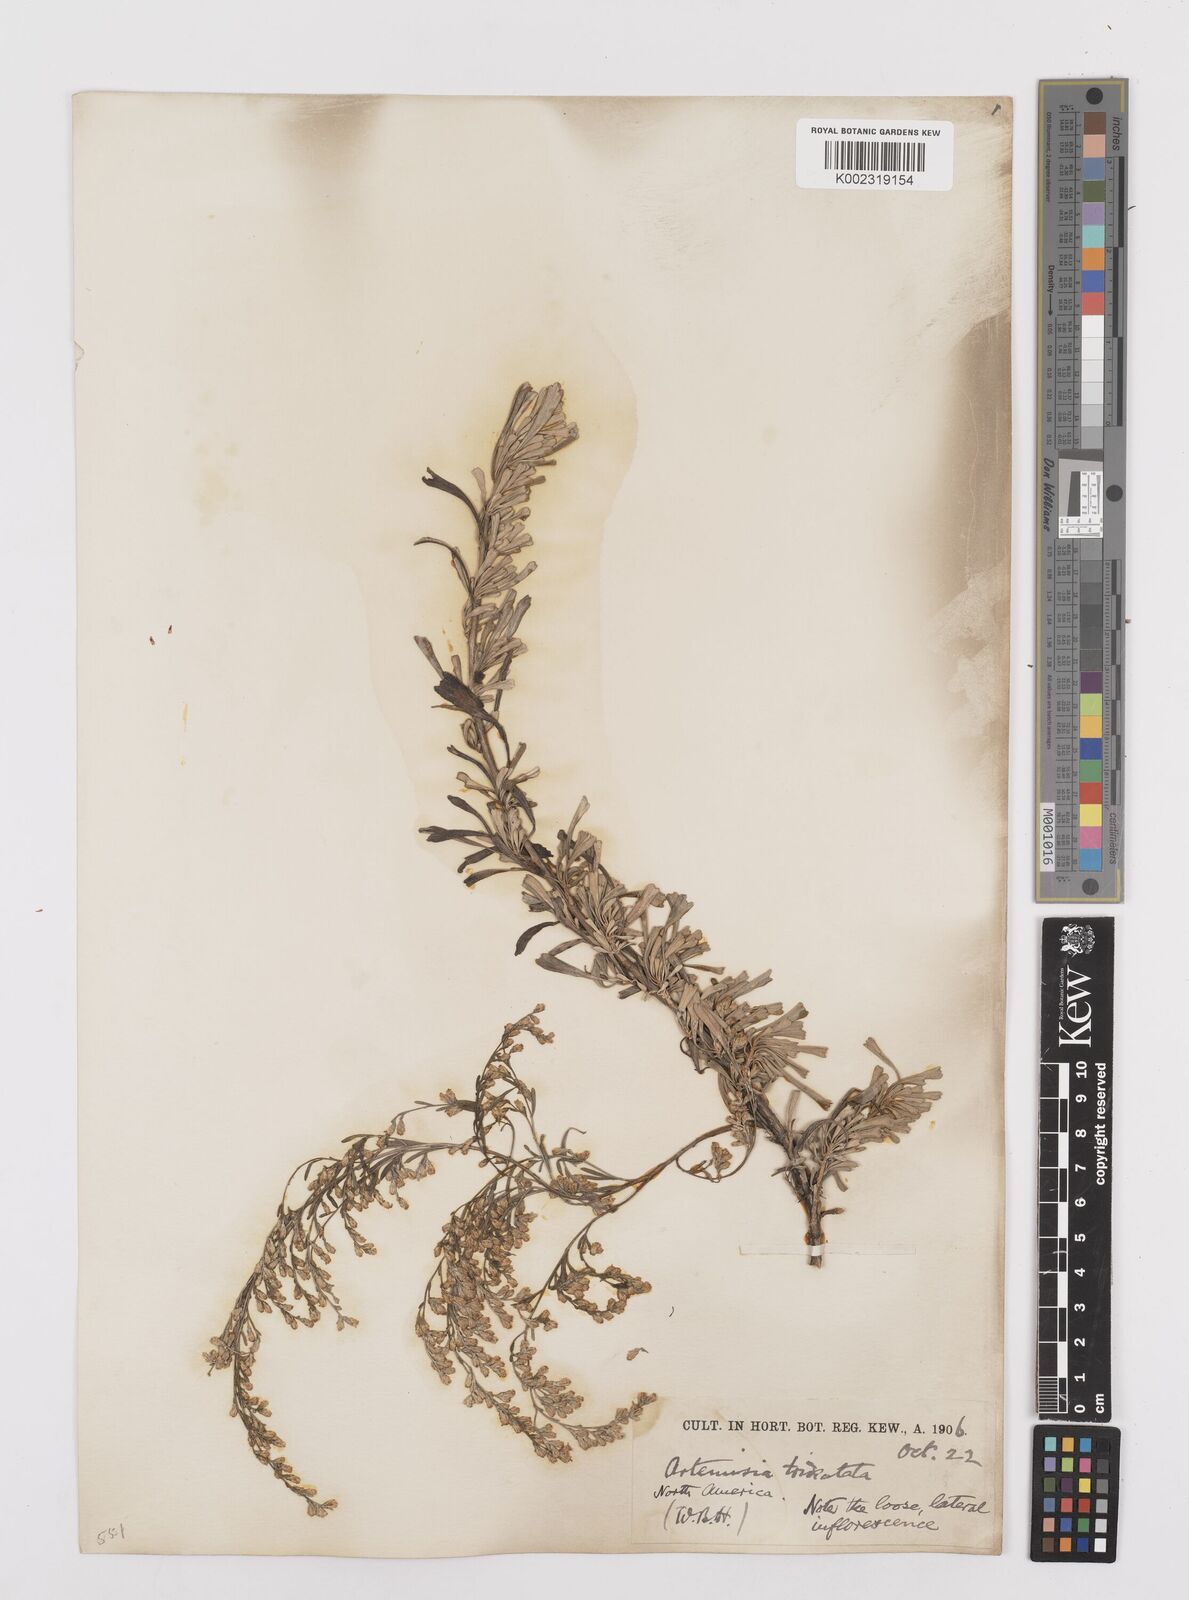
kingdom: Plantae
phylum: Tracheophyta
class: Magnoliopsida
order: Asterales
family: Asteraceae
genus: Artemisia
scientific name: Artemisia tridentata
